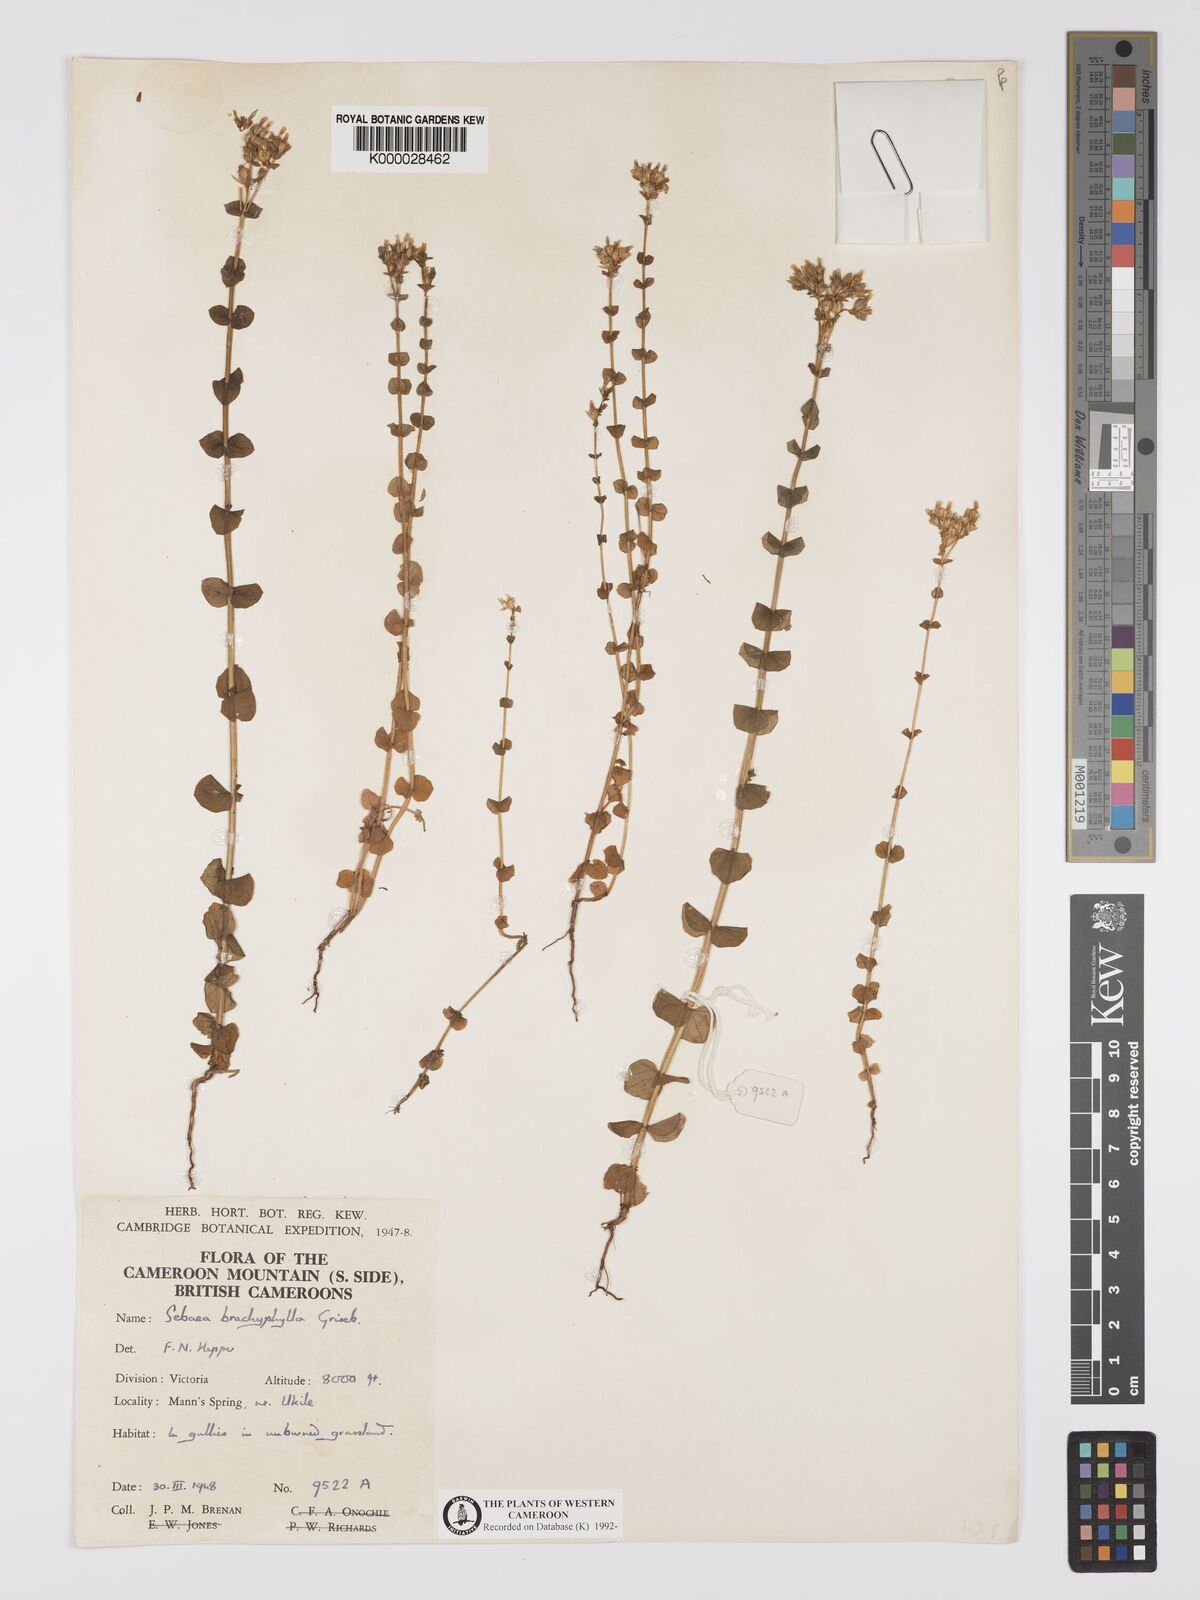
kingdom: Plantae
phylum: Tracheophyta
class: Magnoliopsida
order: Gentianales
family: Gentianaceae
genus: Sebaea
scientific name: Sebaea brachyphylla
